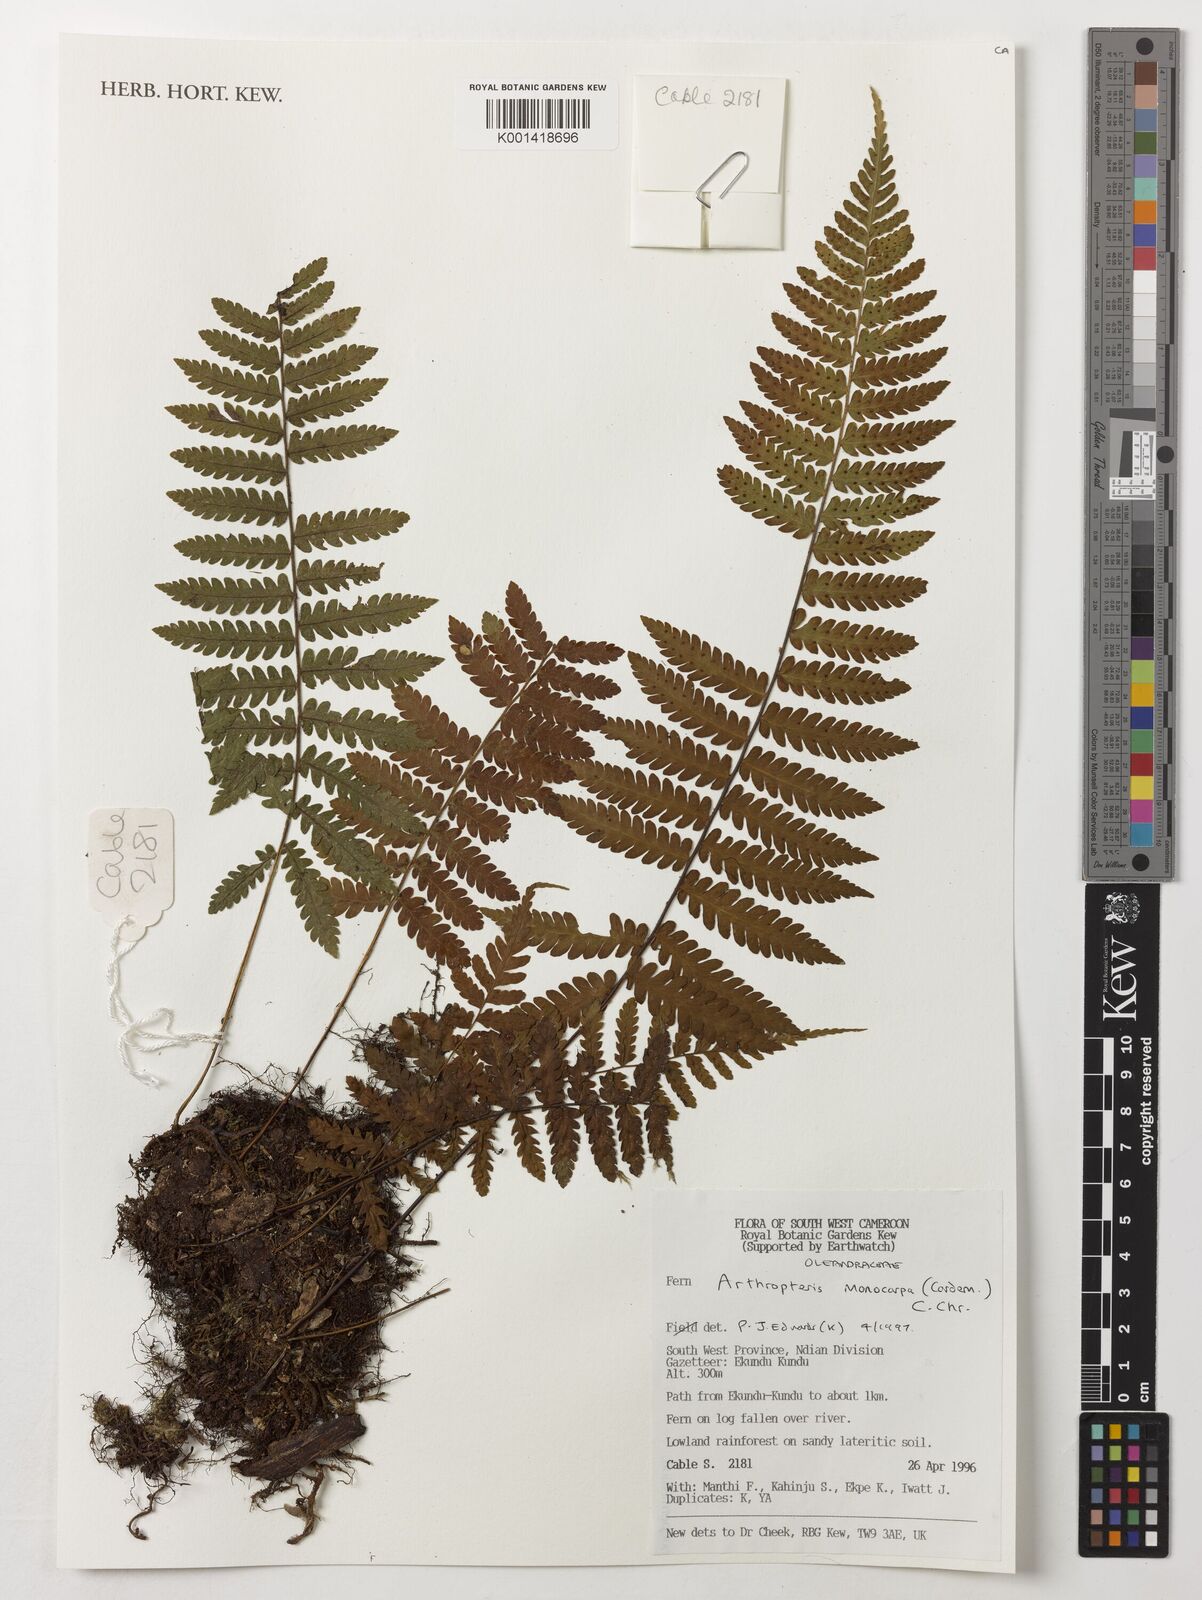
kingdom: Plantae
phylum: Tracheophyta
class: Polypodiopsida
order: Polypodiales
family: Tectariaceae
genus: Arthropteris
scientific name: Arthropteris monocarpa
